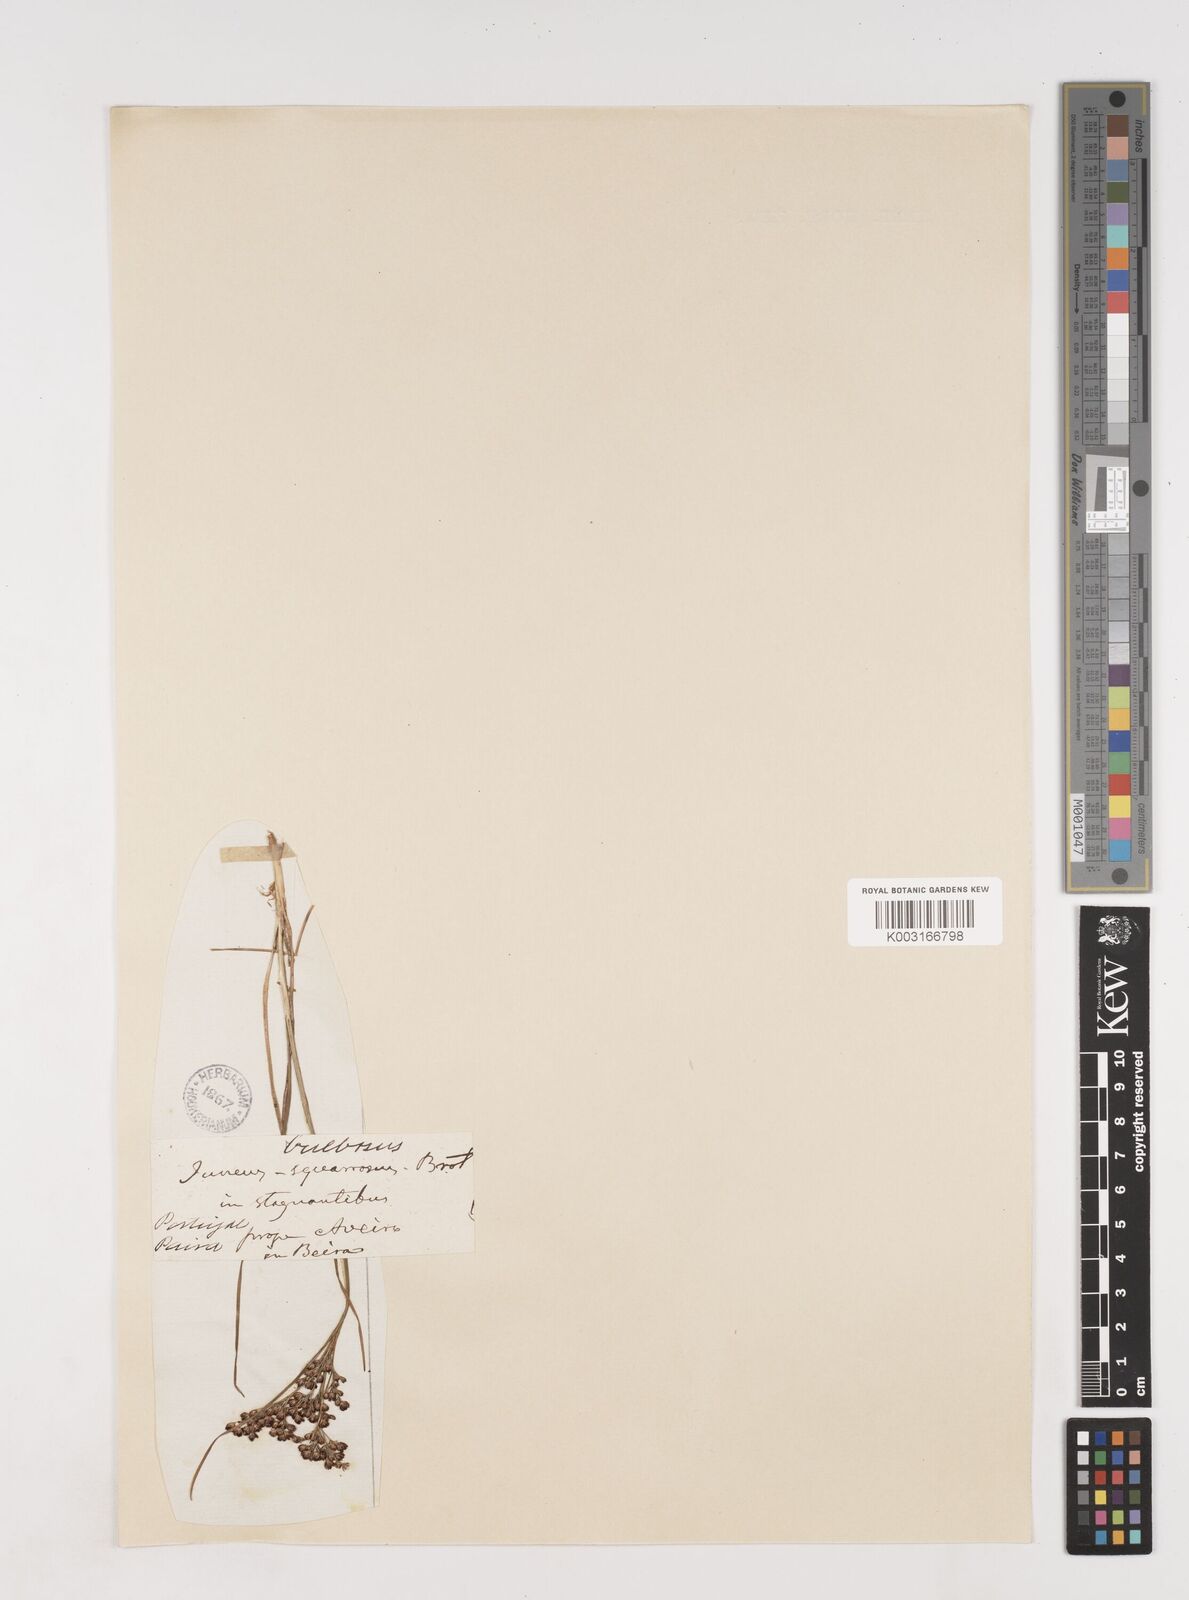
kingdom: Plantae
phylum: Tracheophyta
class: Liliopsida
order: Poales
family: Juncaceae
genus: Juncus
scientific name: Juncus compressus
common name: Round-fruited rush
